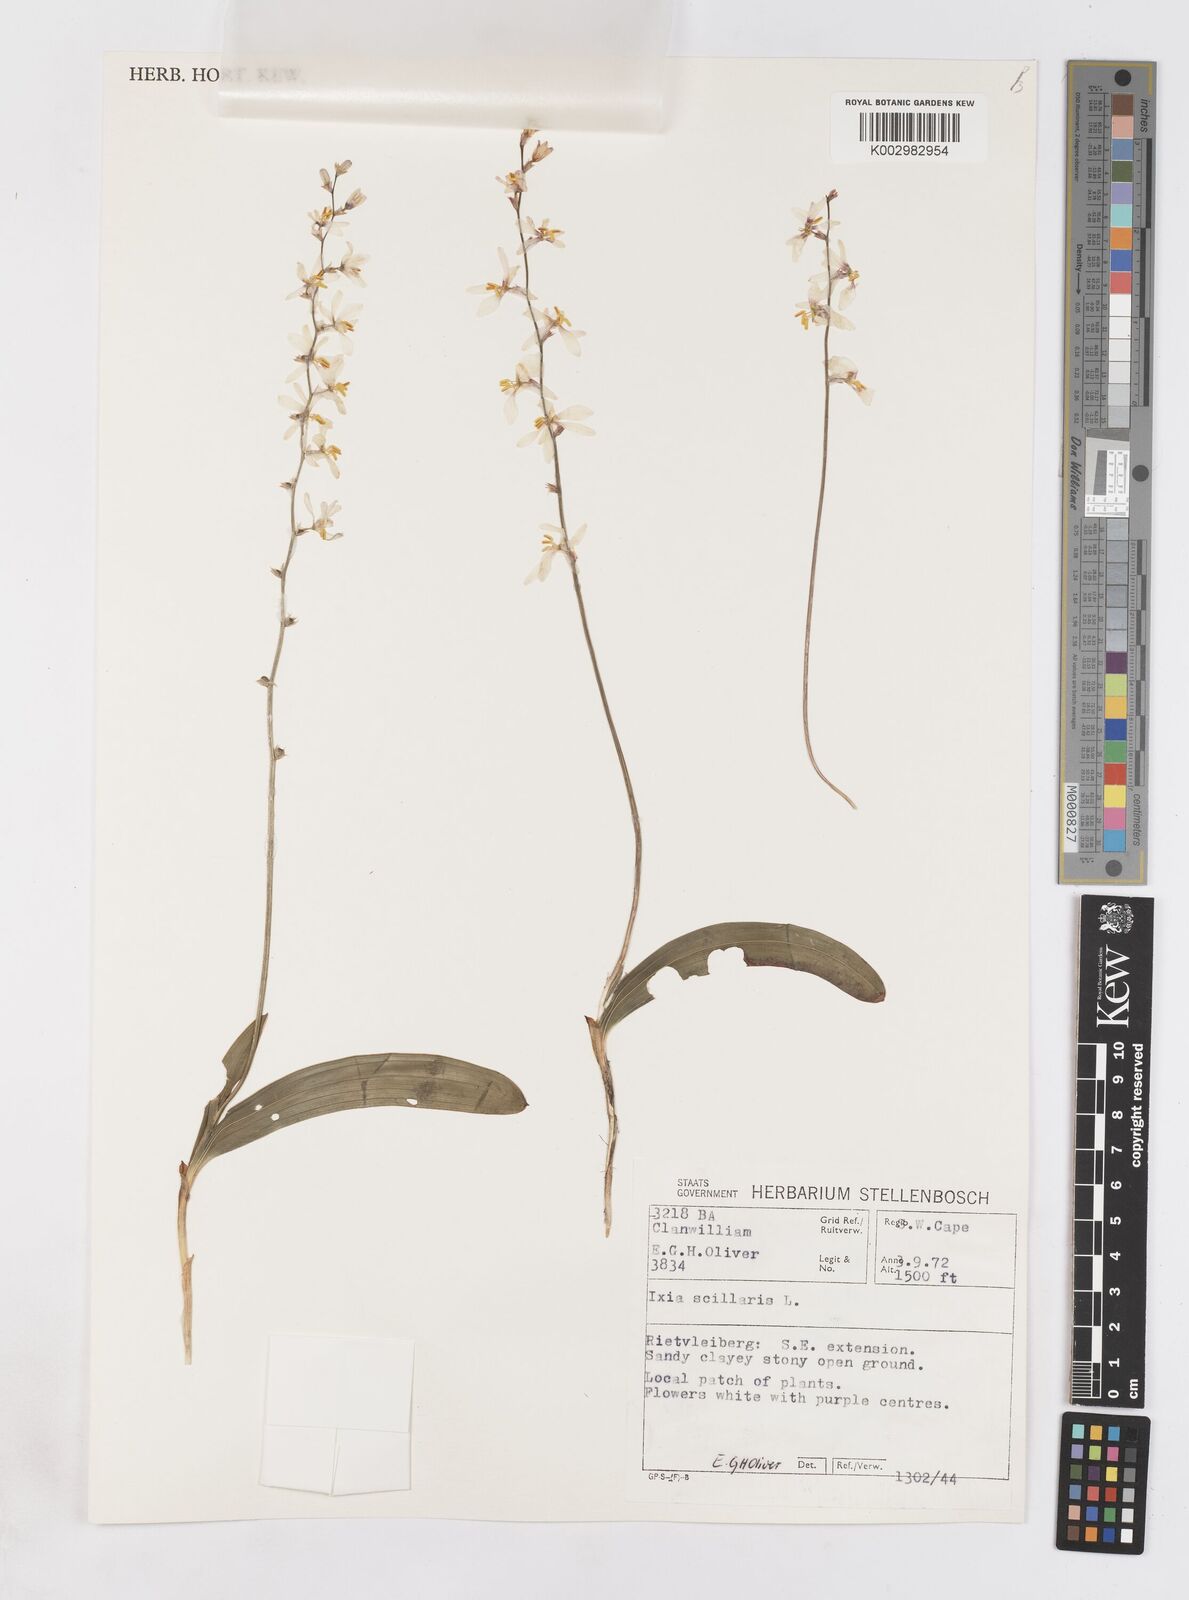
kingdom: Plantae
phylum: Tracheophyta
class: Liliopsida
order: Asparagales
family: Iridaceae
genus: Ixia
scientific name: Ixia scillaris
